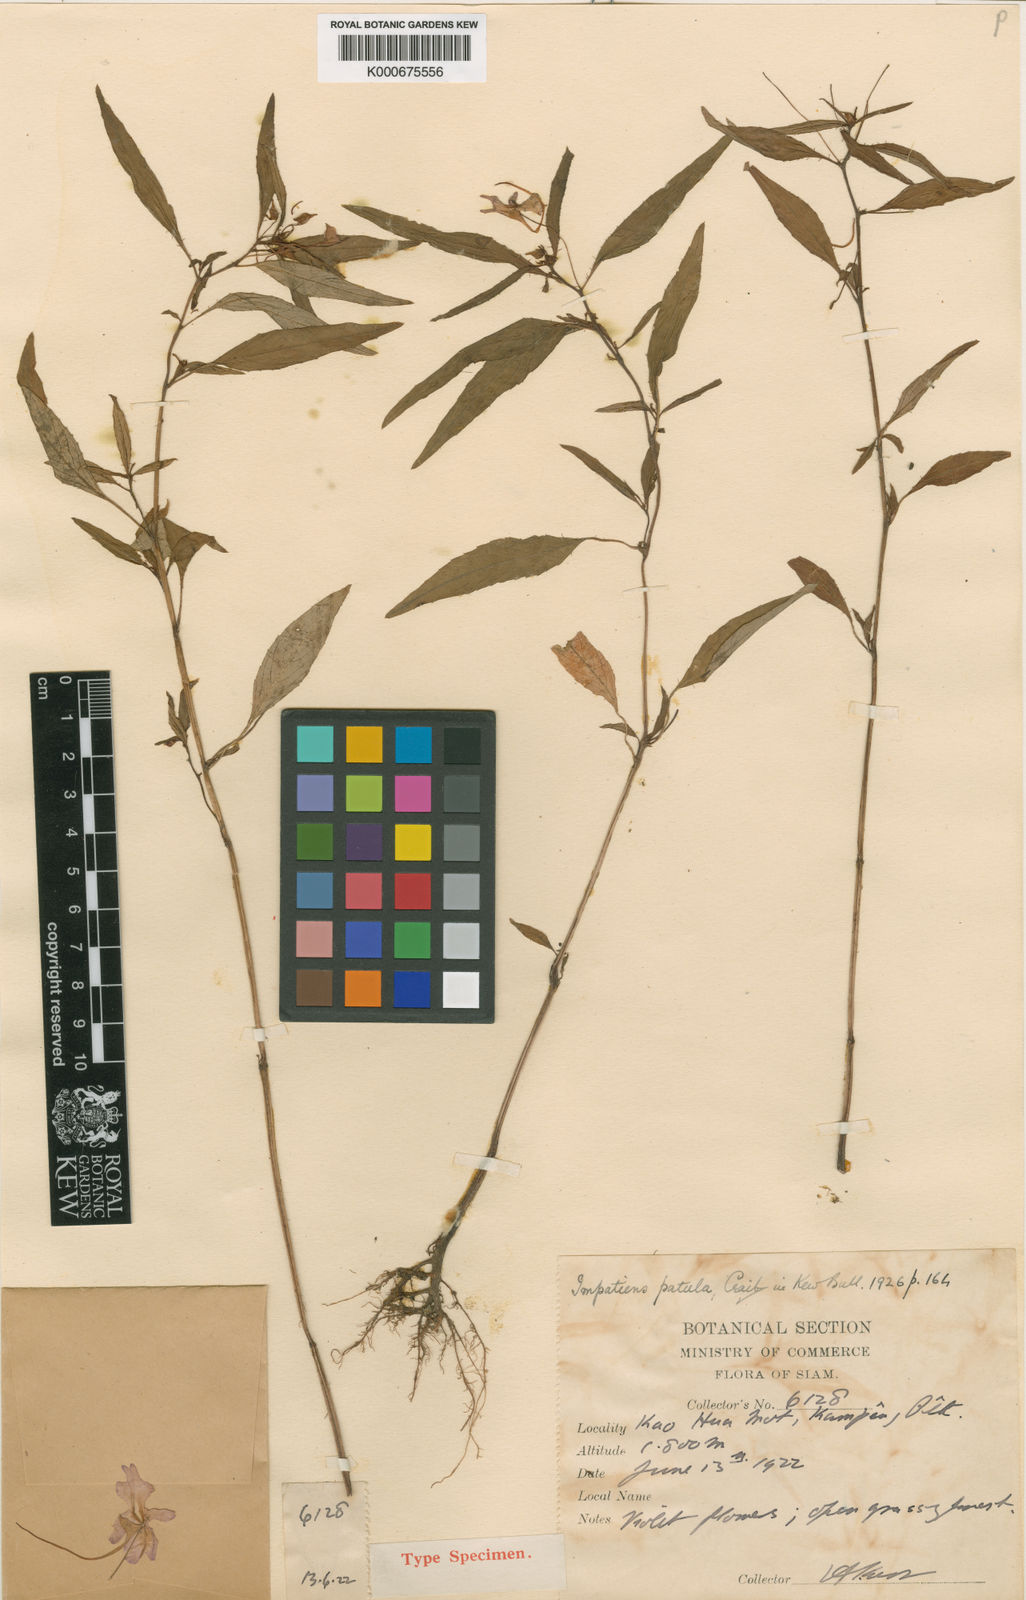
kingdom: Plantae
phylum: Tracheophyta
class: Magnoliopsida
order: Ericales
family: Balsaminaceae
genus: Impatiens
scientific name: Impatiens patula
